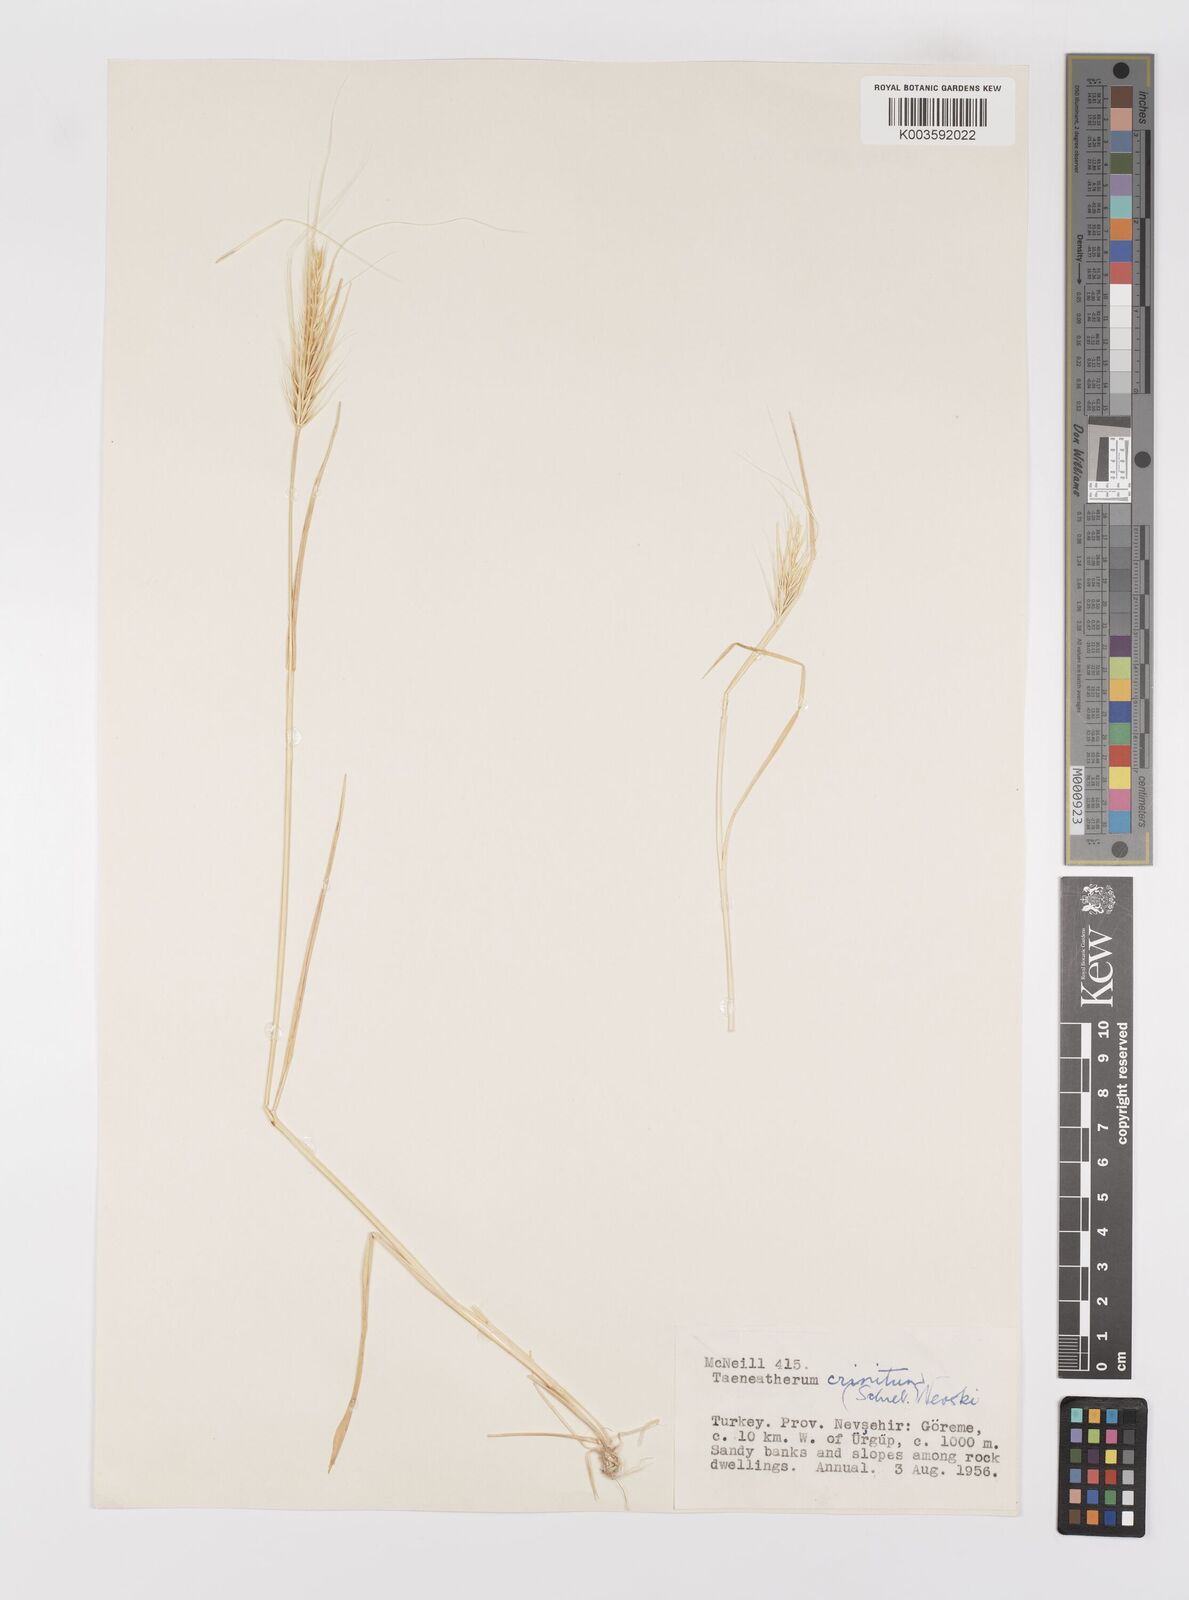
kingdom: Plantae
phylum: Tracheophyta
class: Liliopsida
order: Poales
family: Poaceae
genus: Taeniatherum
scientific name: Taeniatherum caput-medusae
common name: Medusahead
